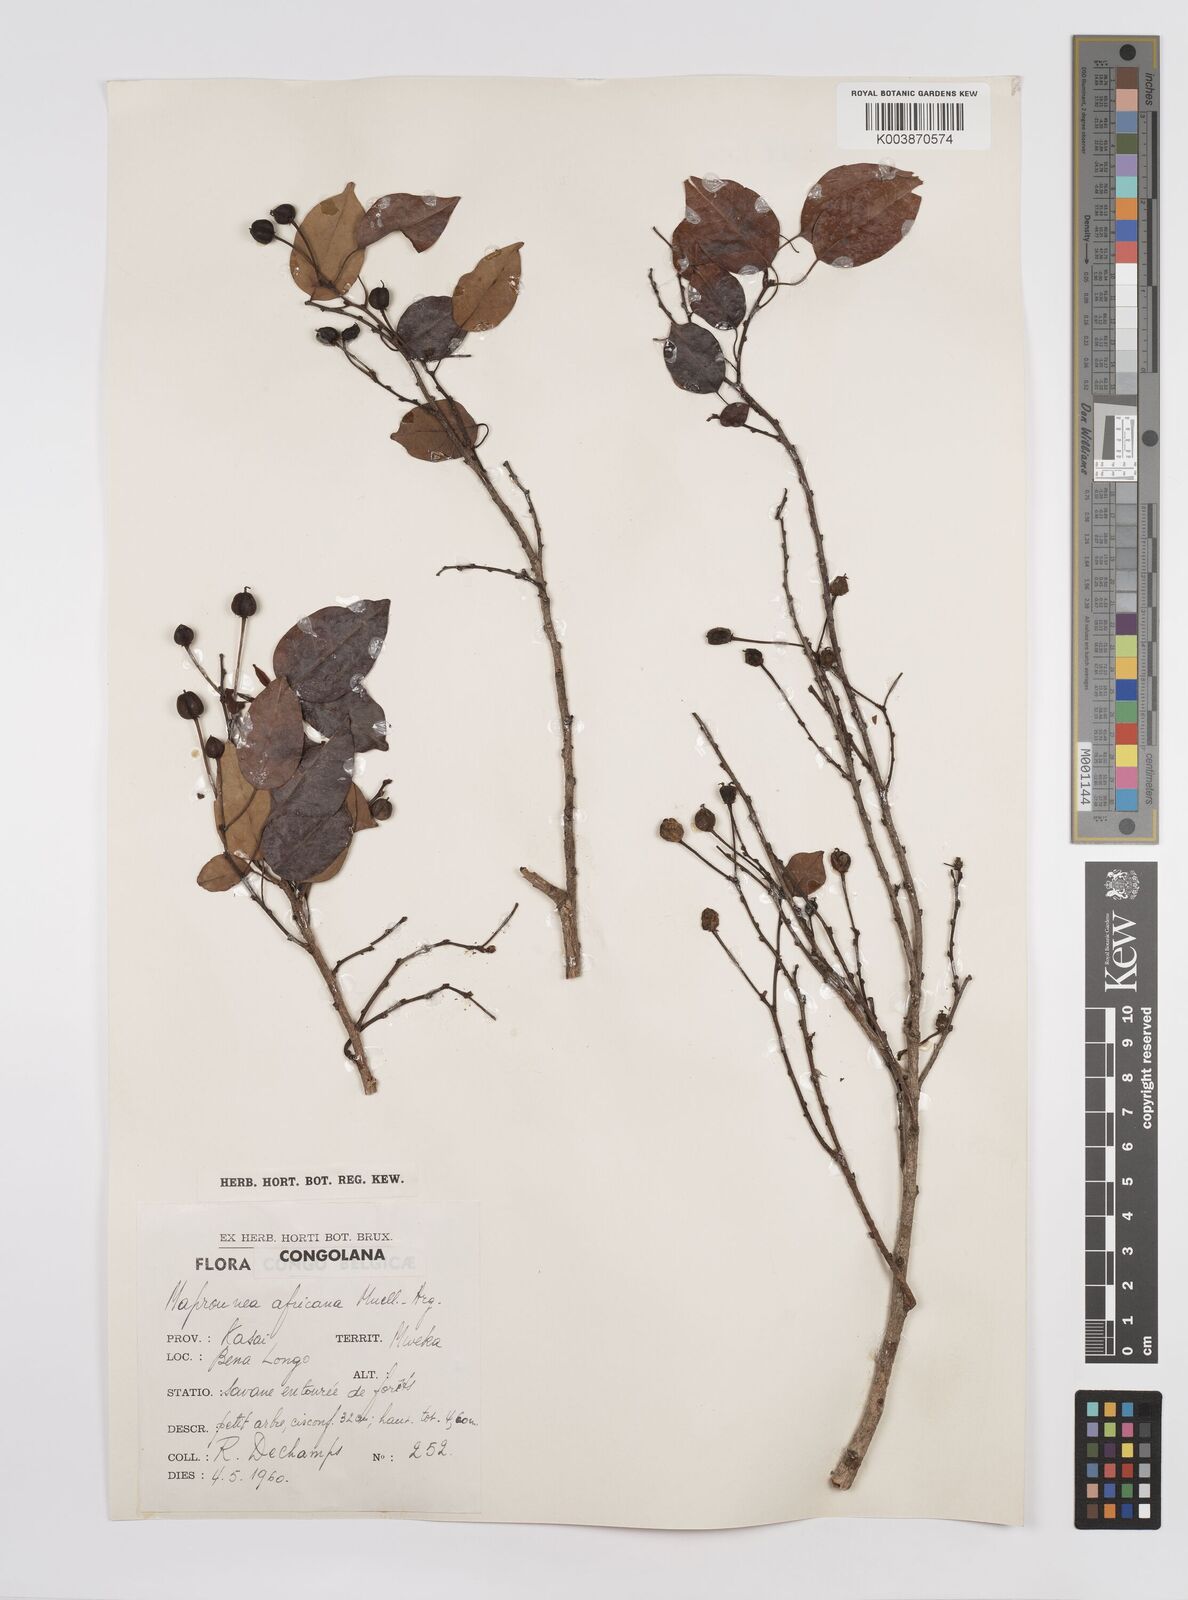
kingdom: Plantae
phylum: Tracheophyta
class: Magnoliopsida
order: Malpighiales
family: Euphorbiaceae
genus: Maprounea
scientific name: Maprounea africana
